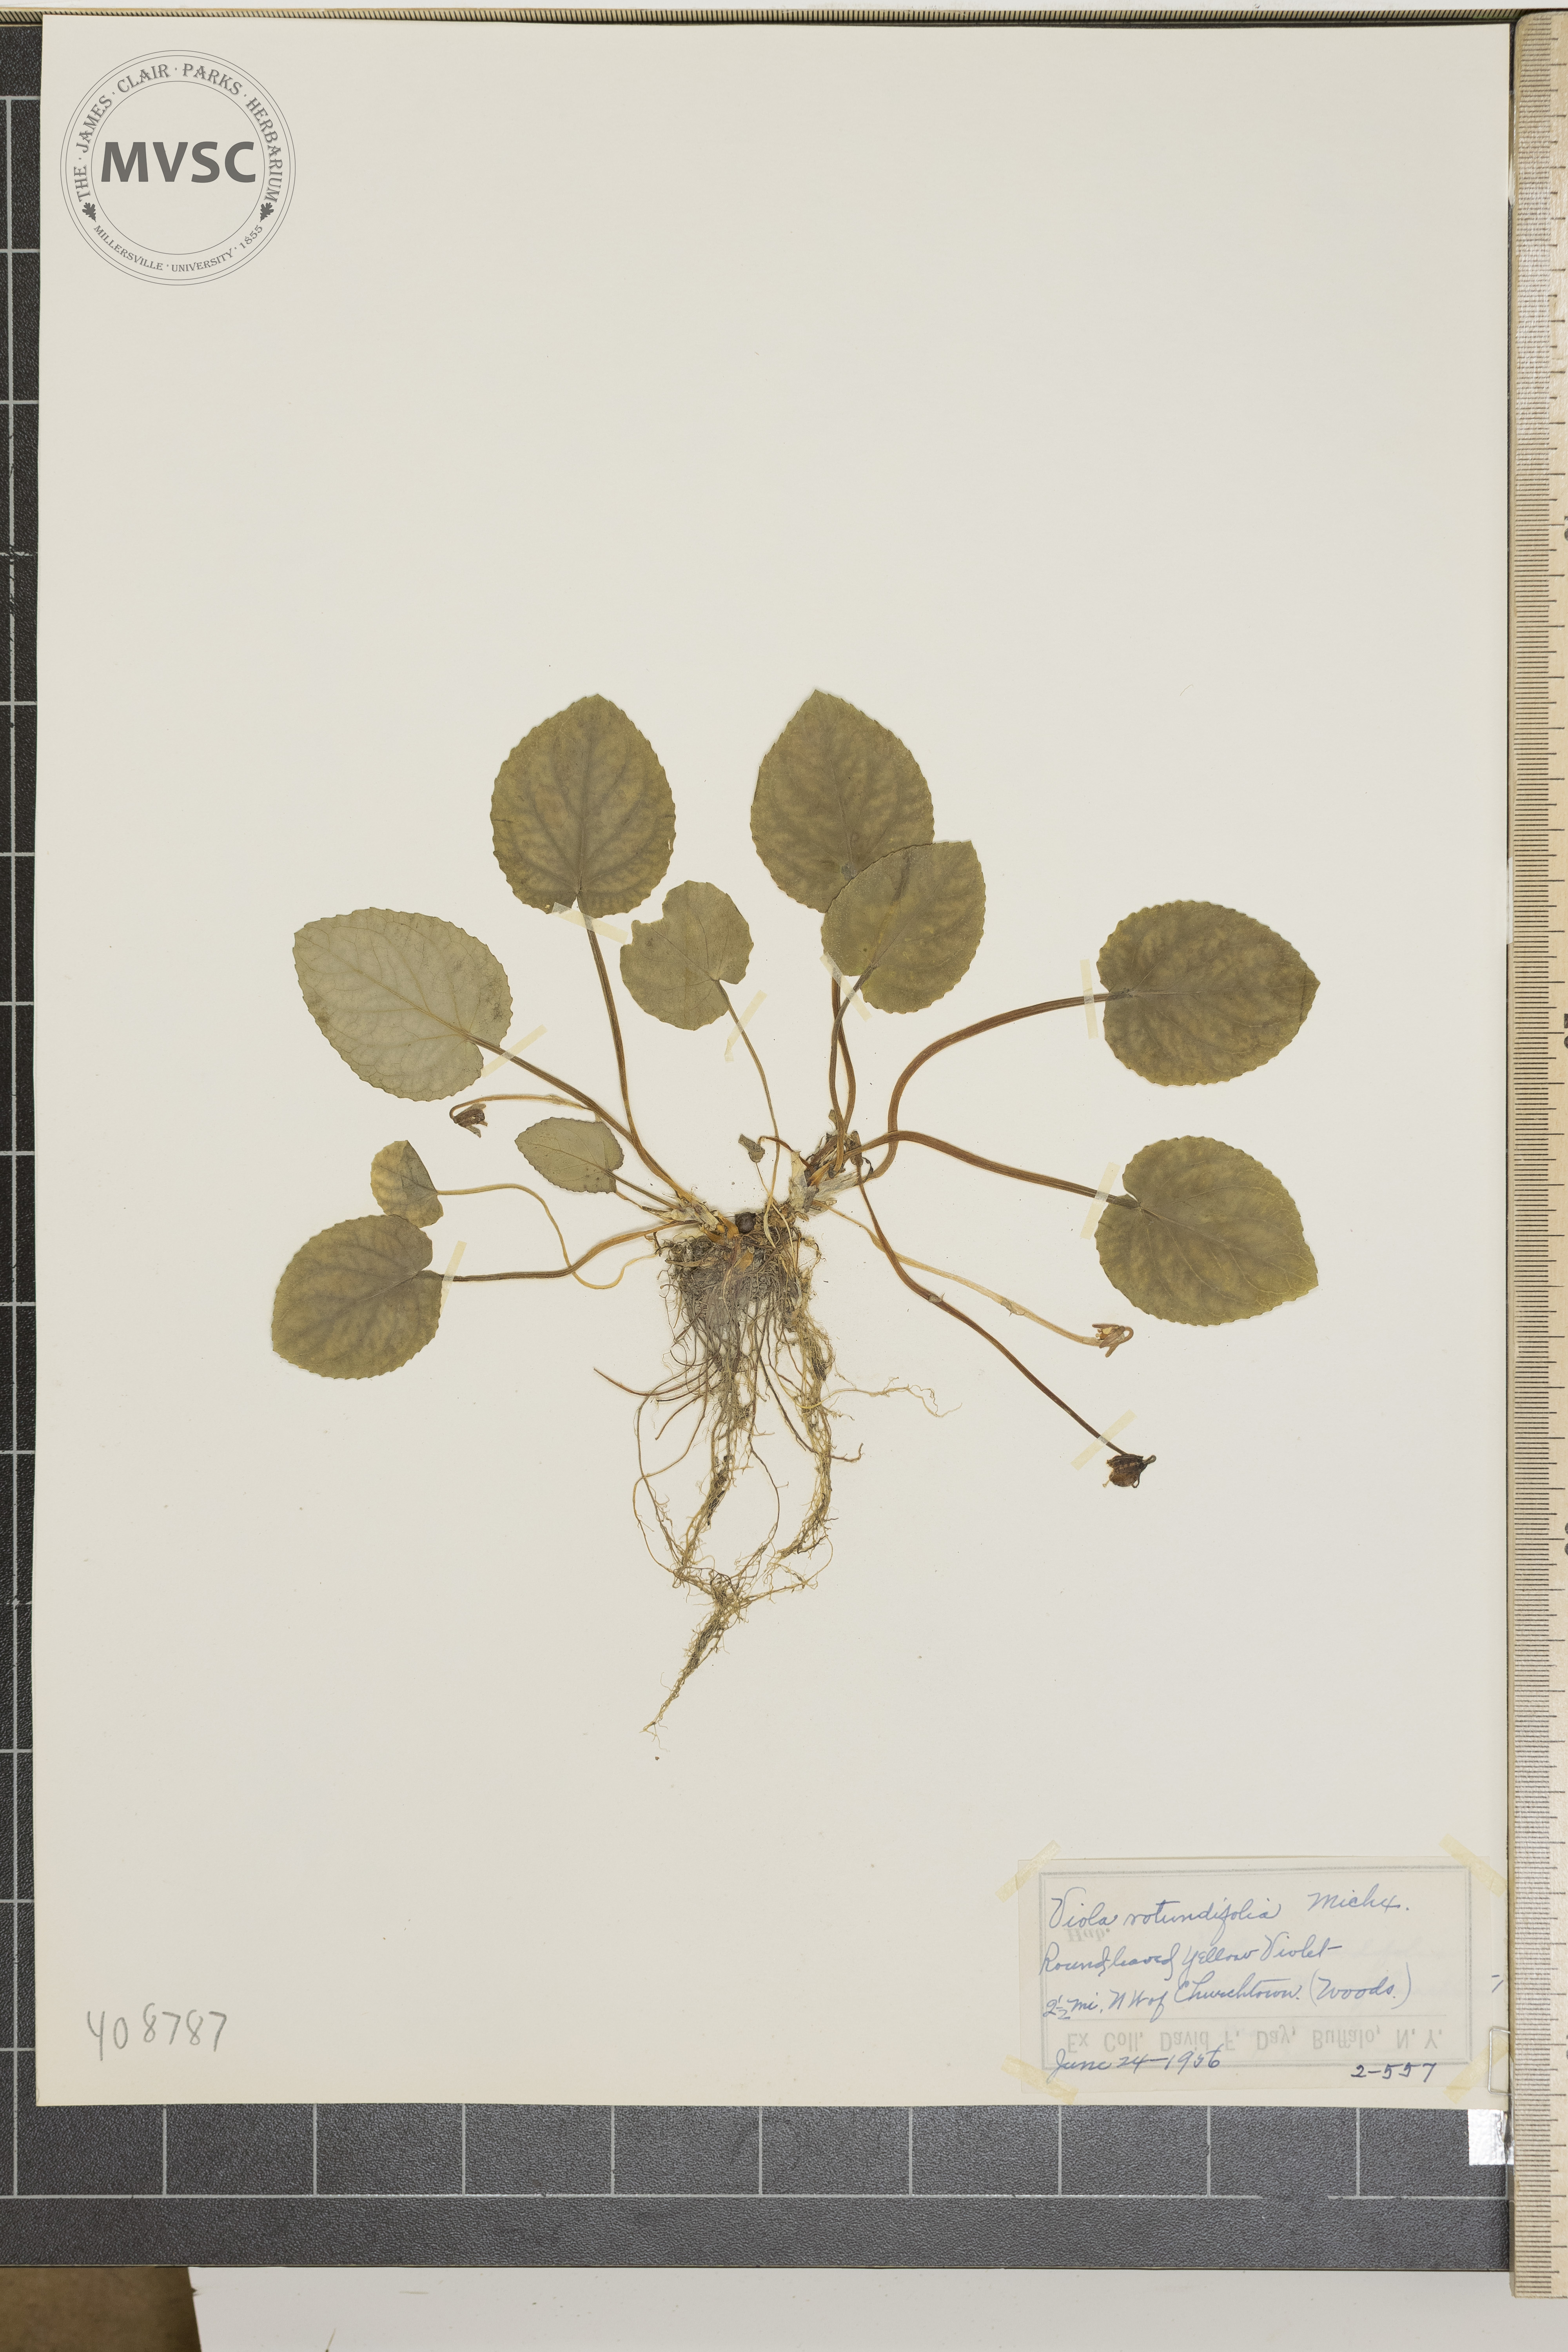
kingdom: Plantae
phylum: Tracheophyta
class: Magnoliopsida
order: Malpighiales
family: Violaceae
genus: Viola
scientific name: Viola rotundifolia
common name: Round-leaved yellow violet
